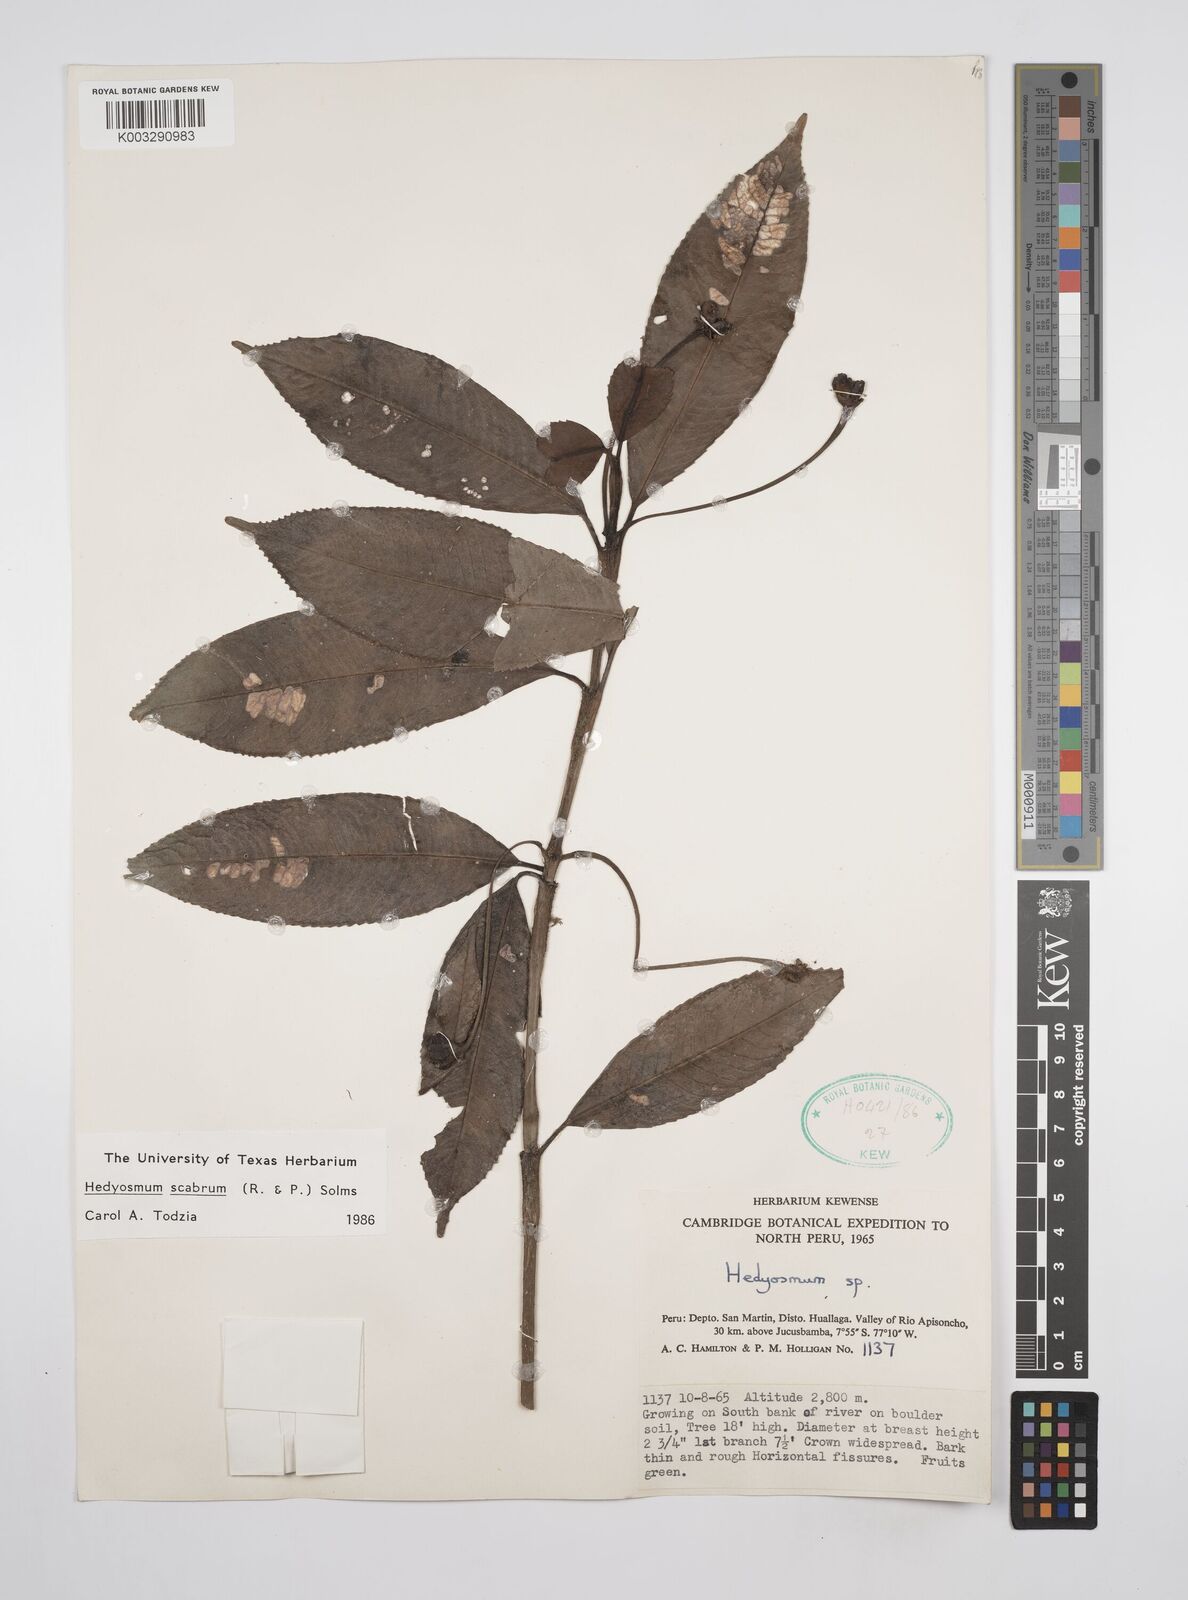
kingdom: Plantae
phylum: Tracheophyta
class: Magnoliopsida
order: Chloranthales
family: Chloranthaceae
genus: Hedyosmum
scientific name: Hedyosmum scabrum
